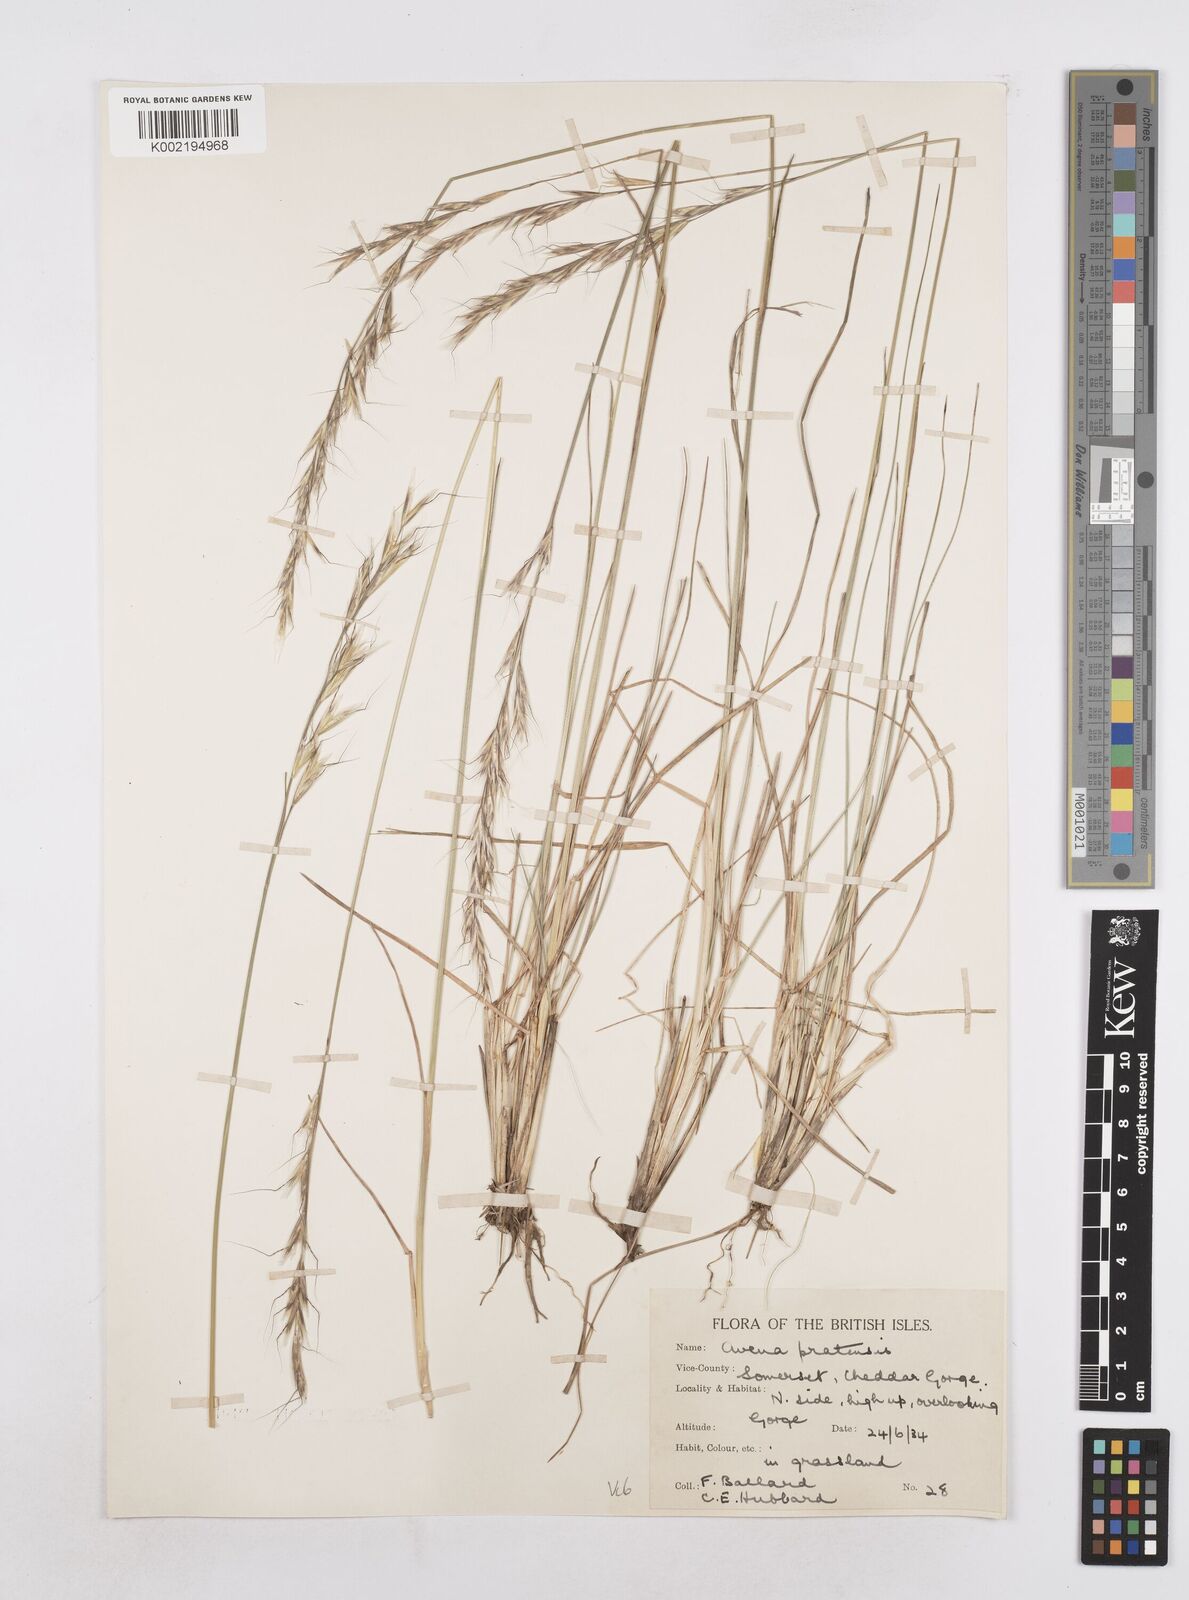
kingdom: Plantae
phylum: Tracheophyta
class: Liliopsida
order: Poales
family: Poaceae
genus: Helictochloa
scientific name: Helictochloa pratensis
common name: Meadow oat grass
